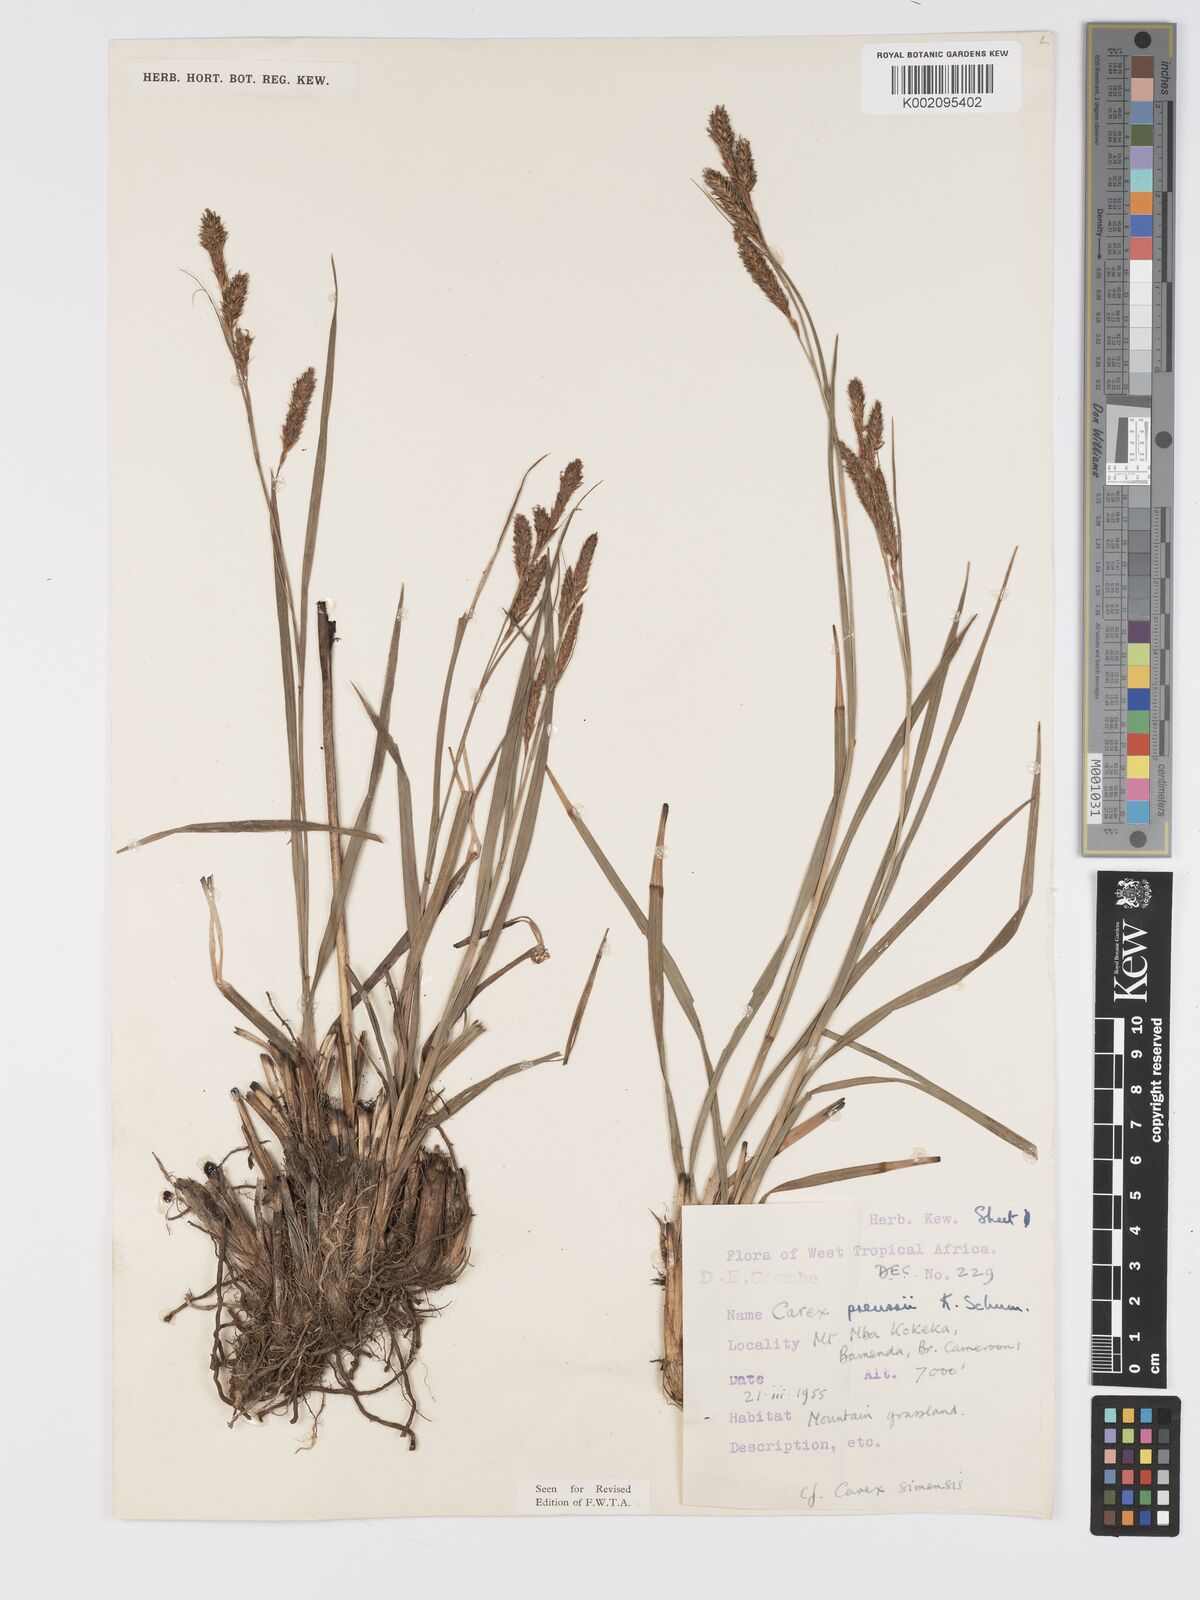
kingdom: Plantae
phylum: Tracheophyta
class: Liliopsida
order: Poales
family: Cyperaceae
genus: Carex
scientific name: Carex petitiana
